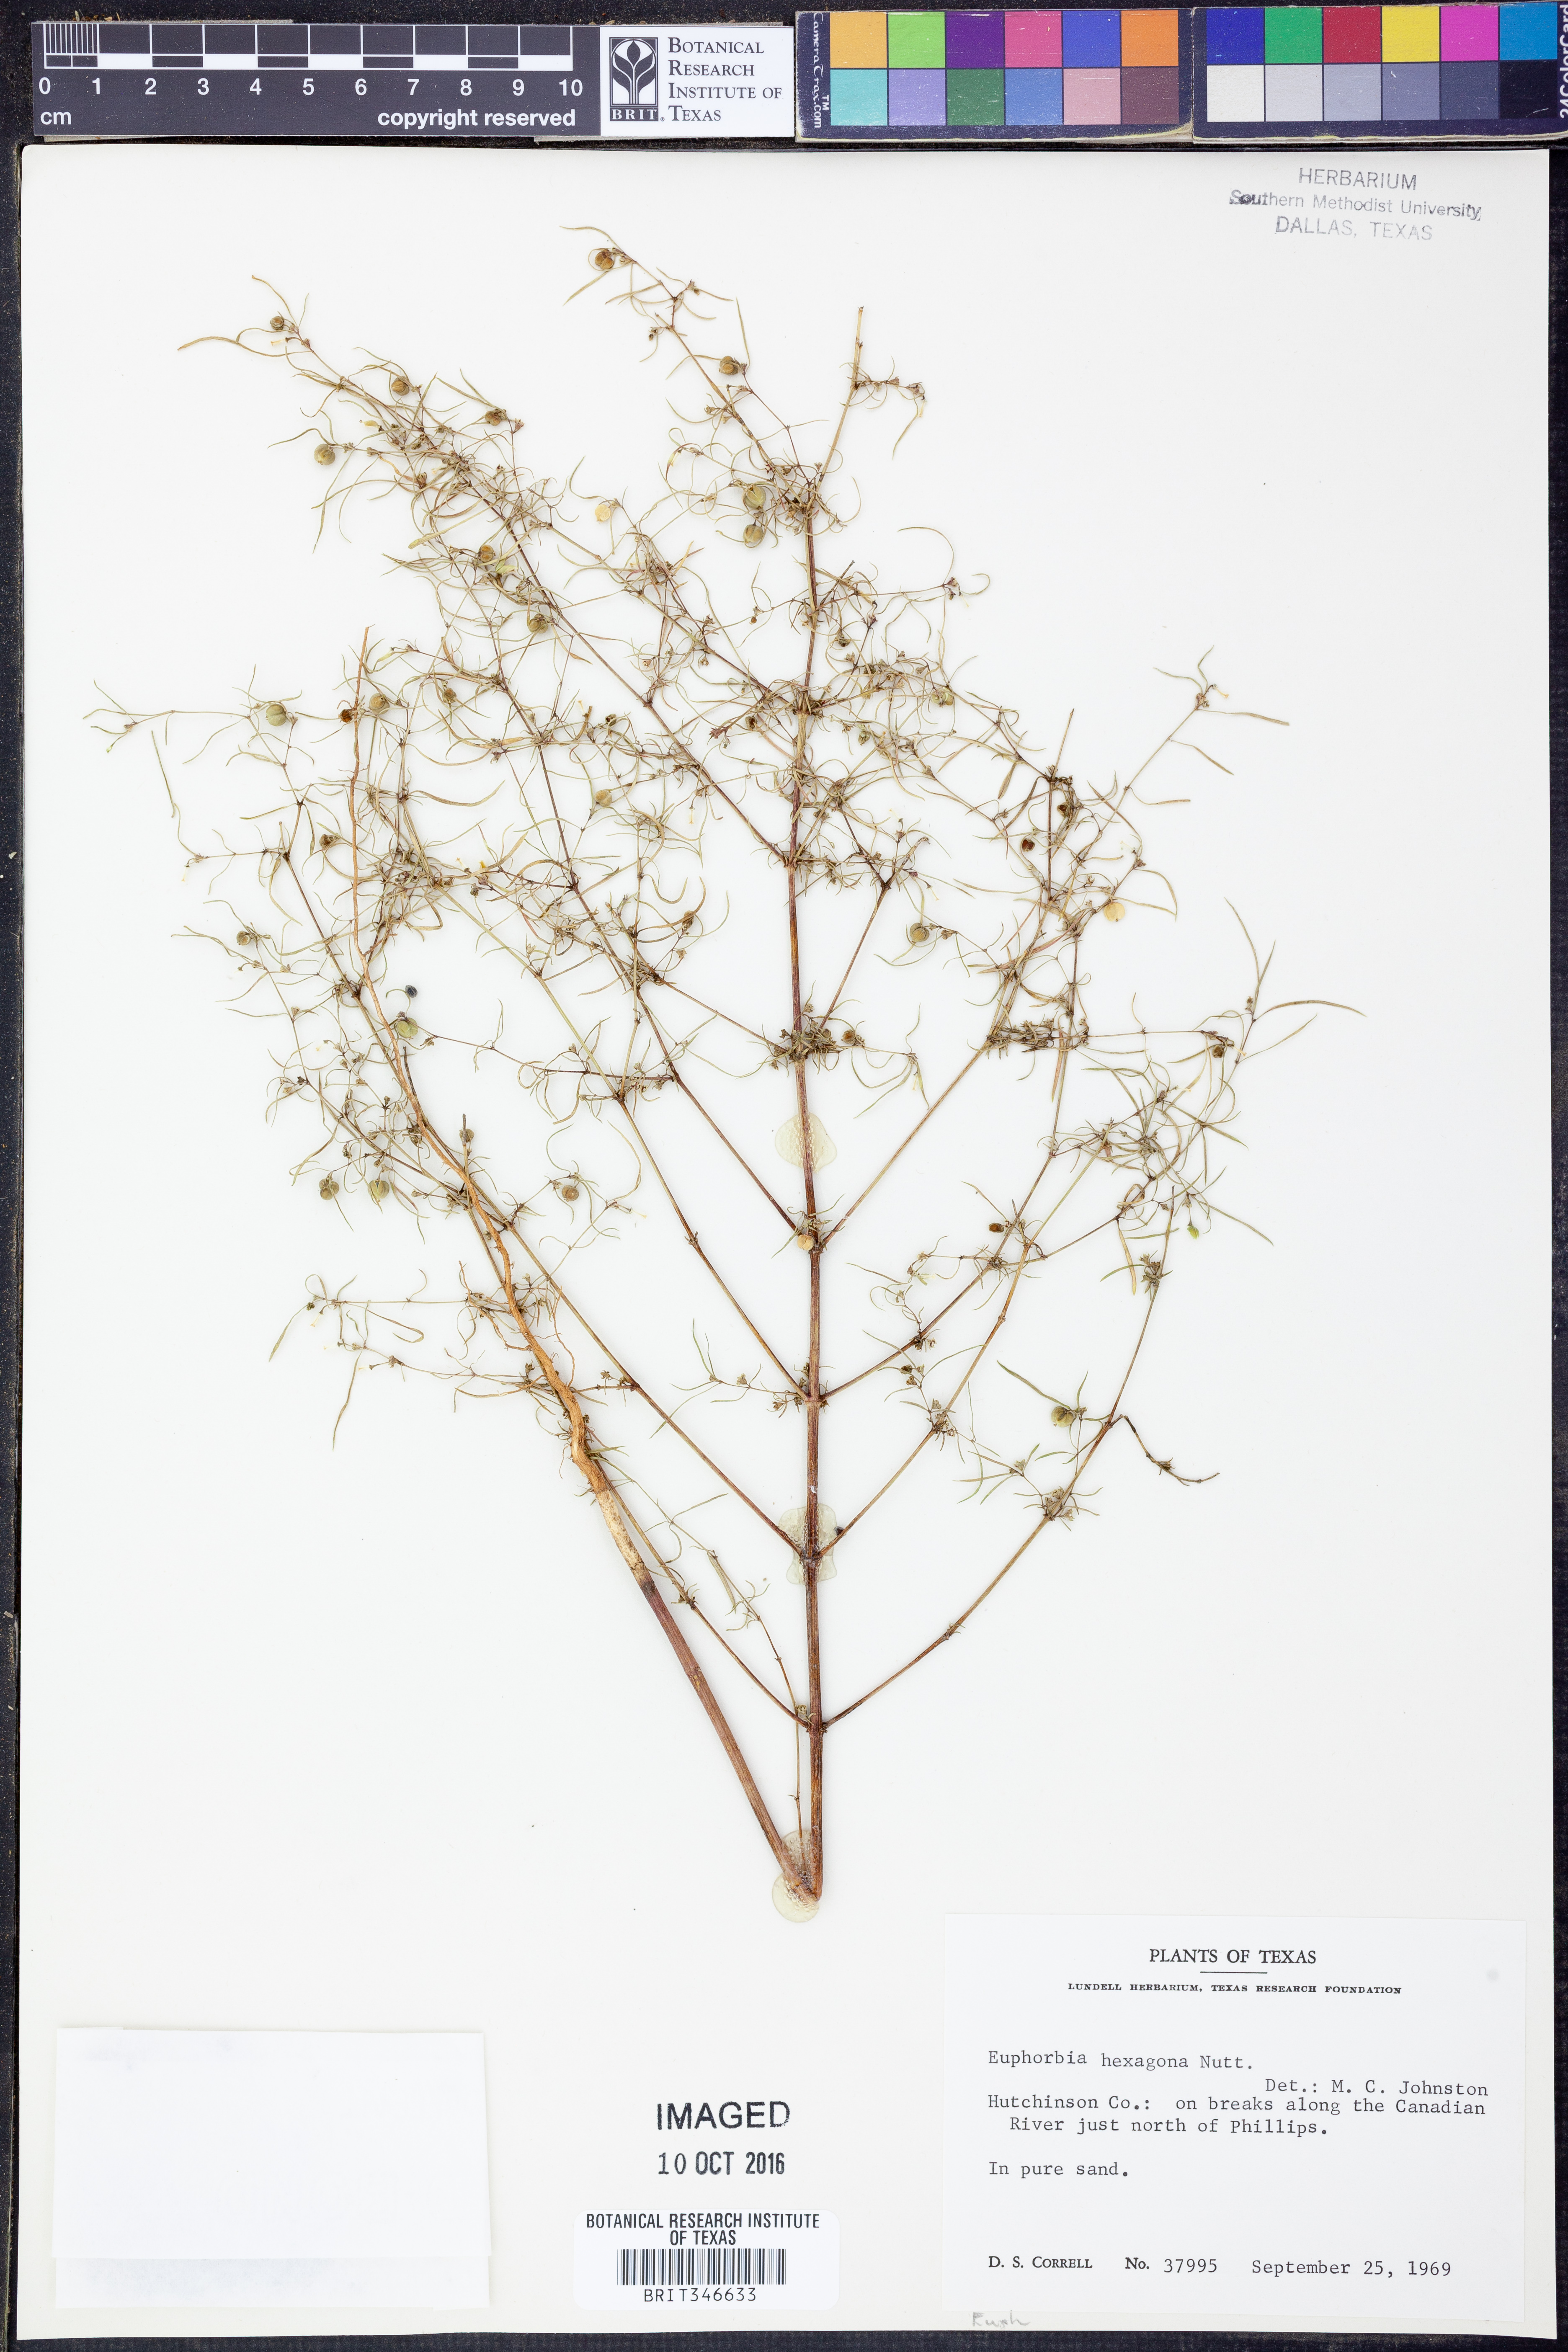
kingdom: Plantae
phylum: Tracheophyta
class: Magnoliopsida
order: Malpighiales
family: Euphorbiaceae
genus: Euphorbia
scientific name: Euphorbia hexagona
